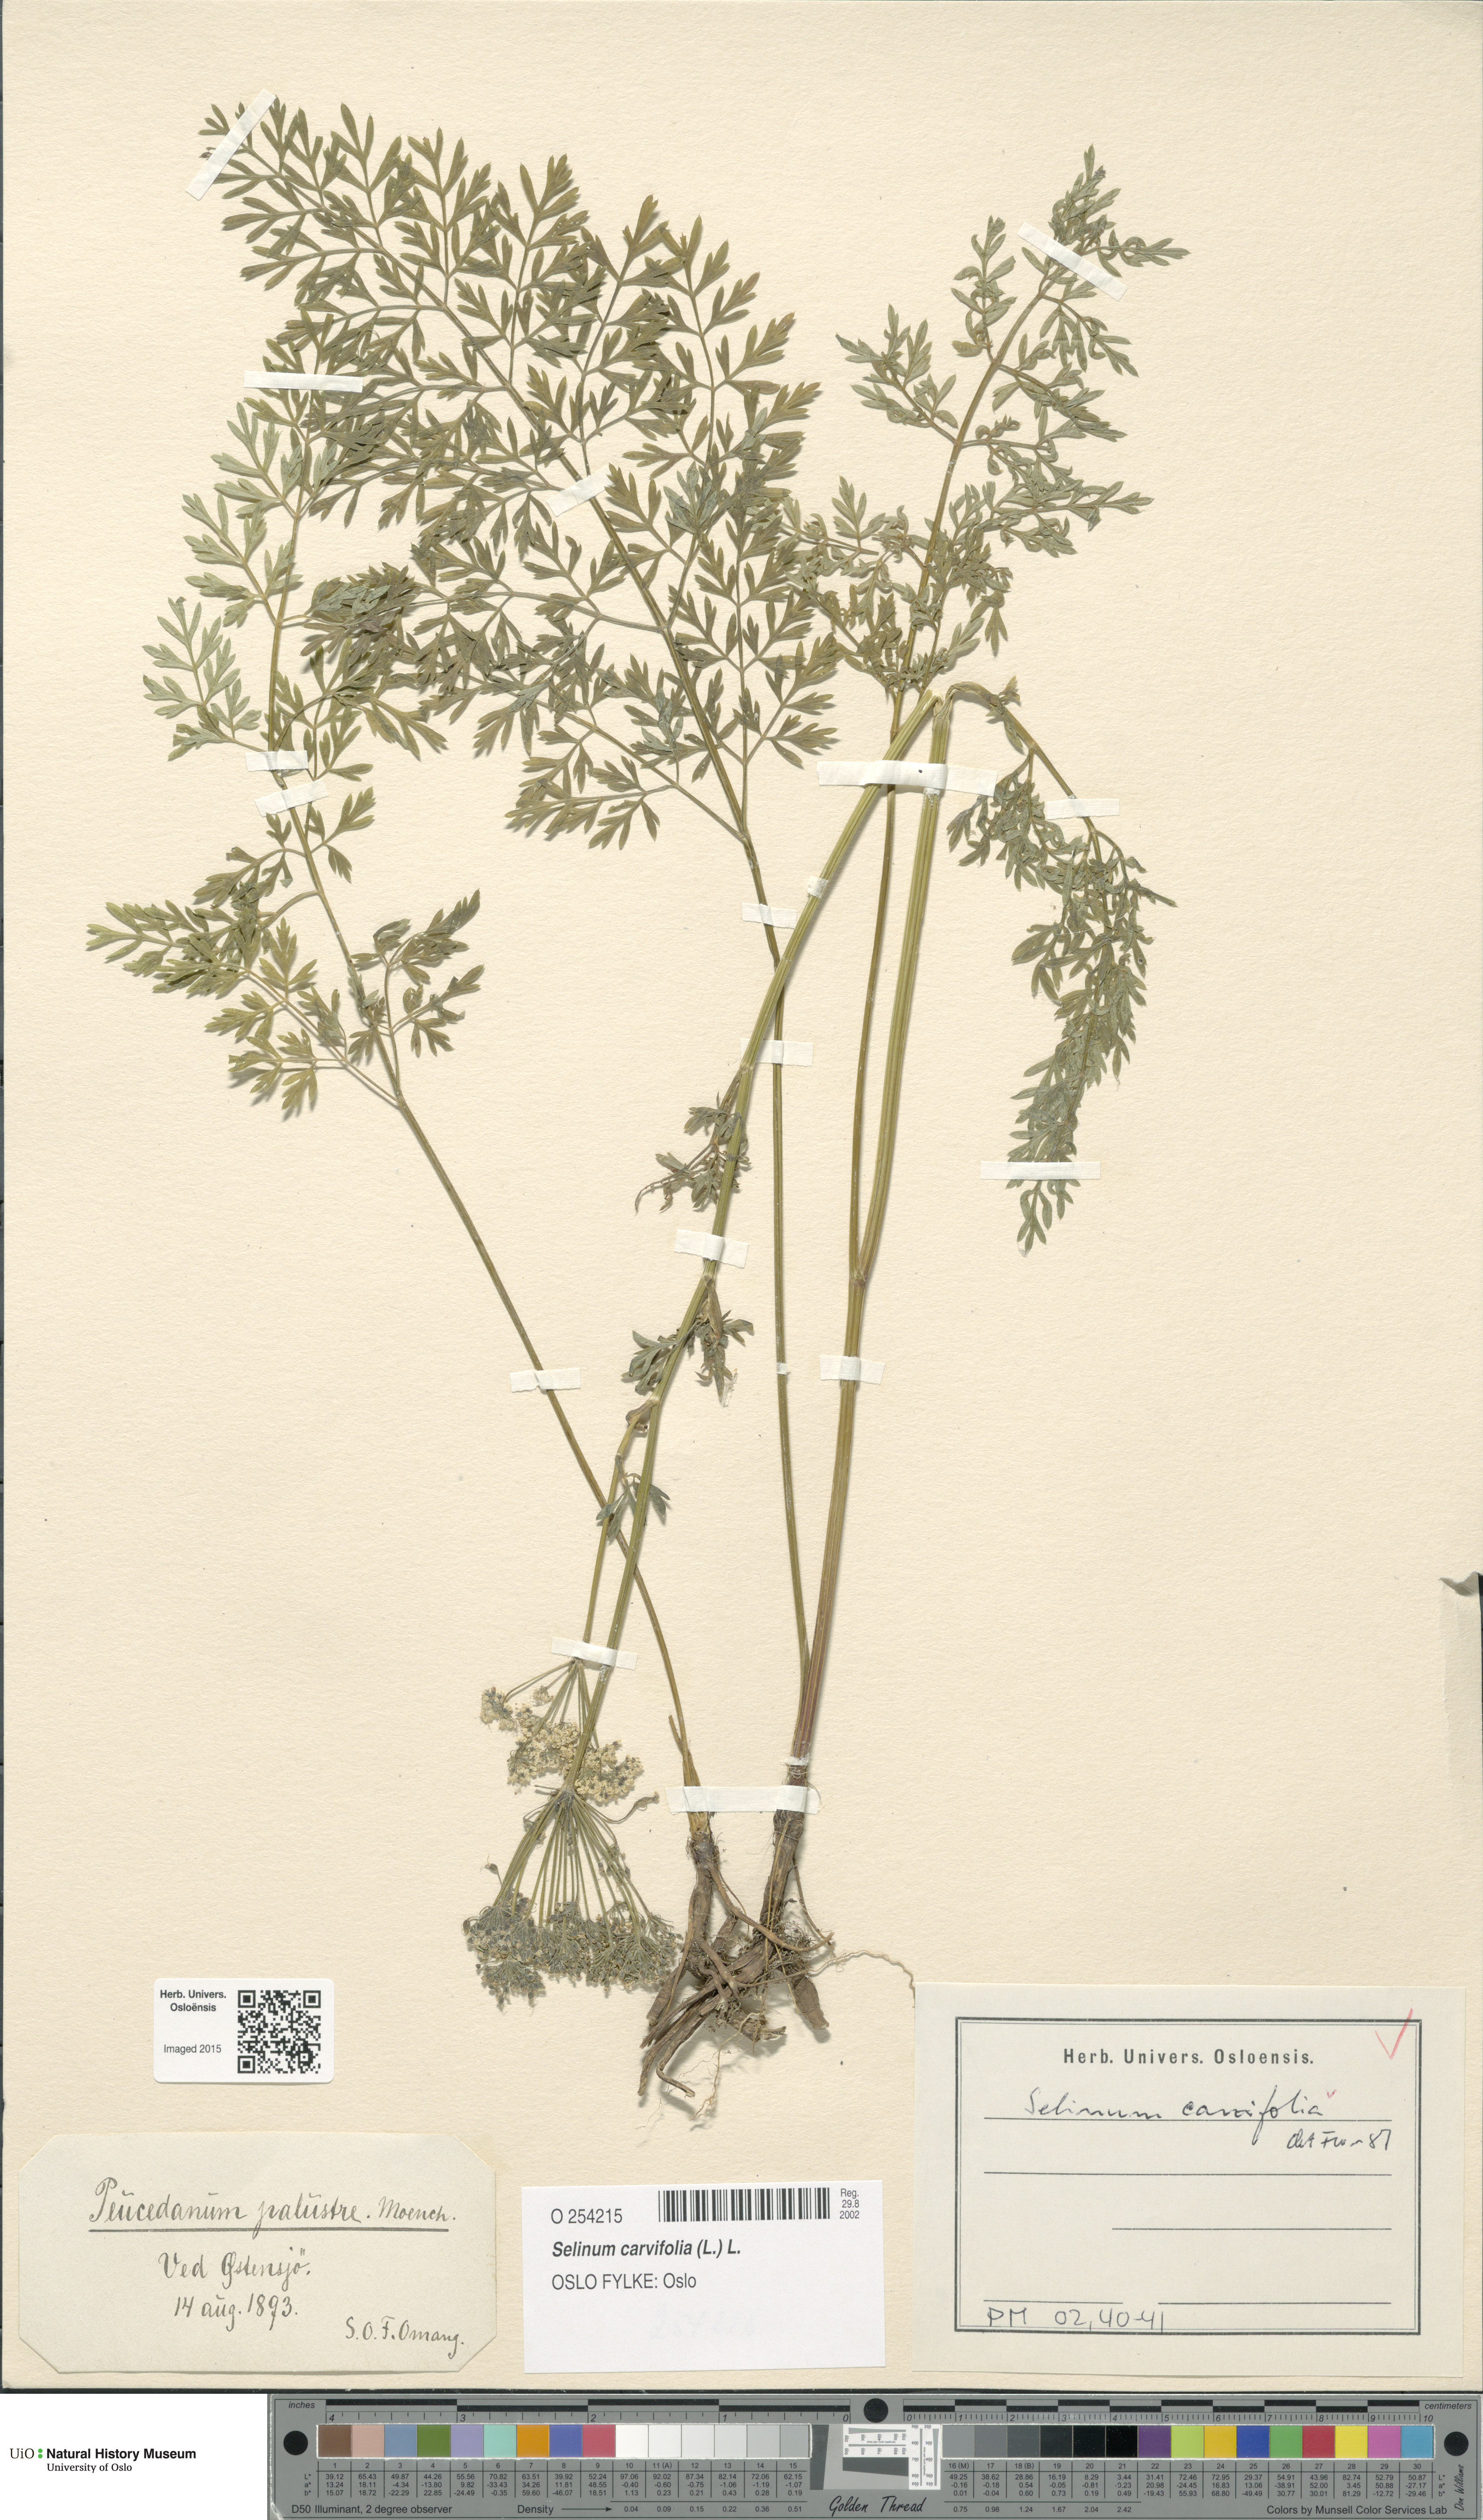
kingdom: Plantae
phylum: Tracheophyta
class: Magnoliopsida
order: Apiales
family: Apiaceae
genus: Selinum
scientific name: Selinum carvifolia
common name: Cambridge milk-parsley
